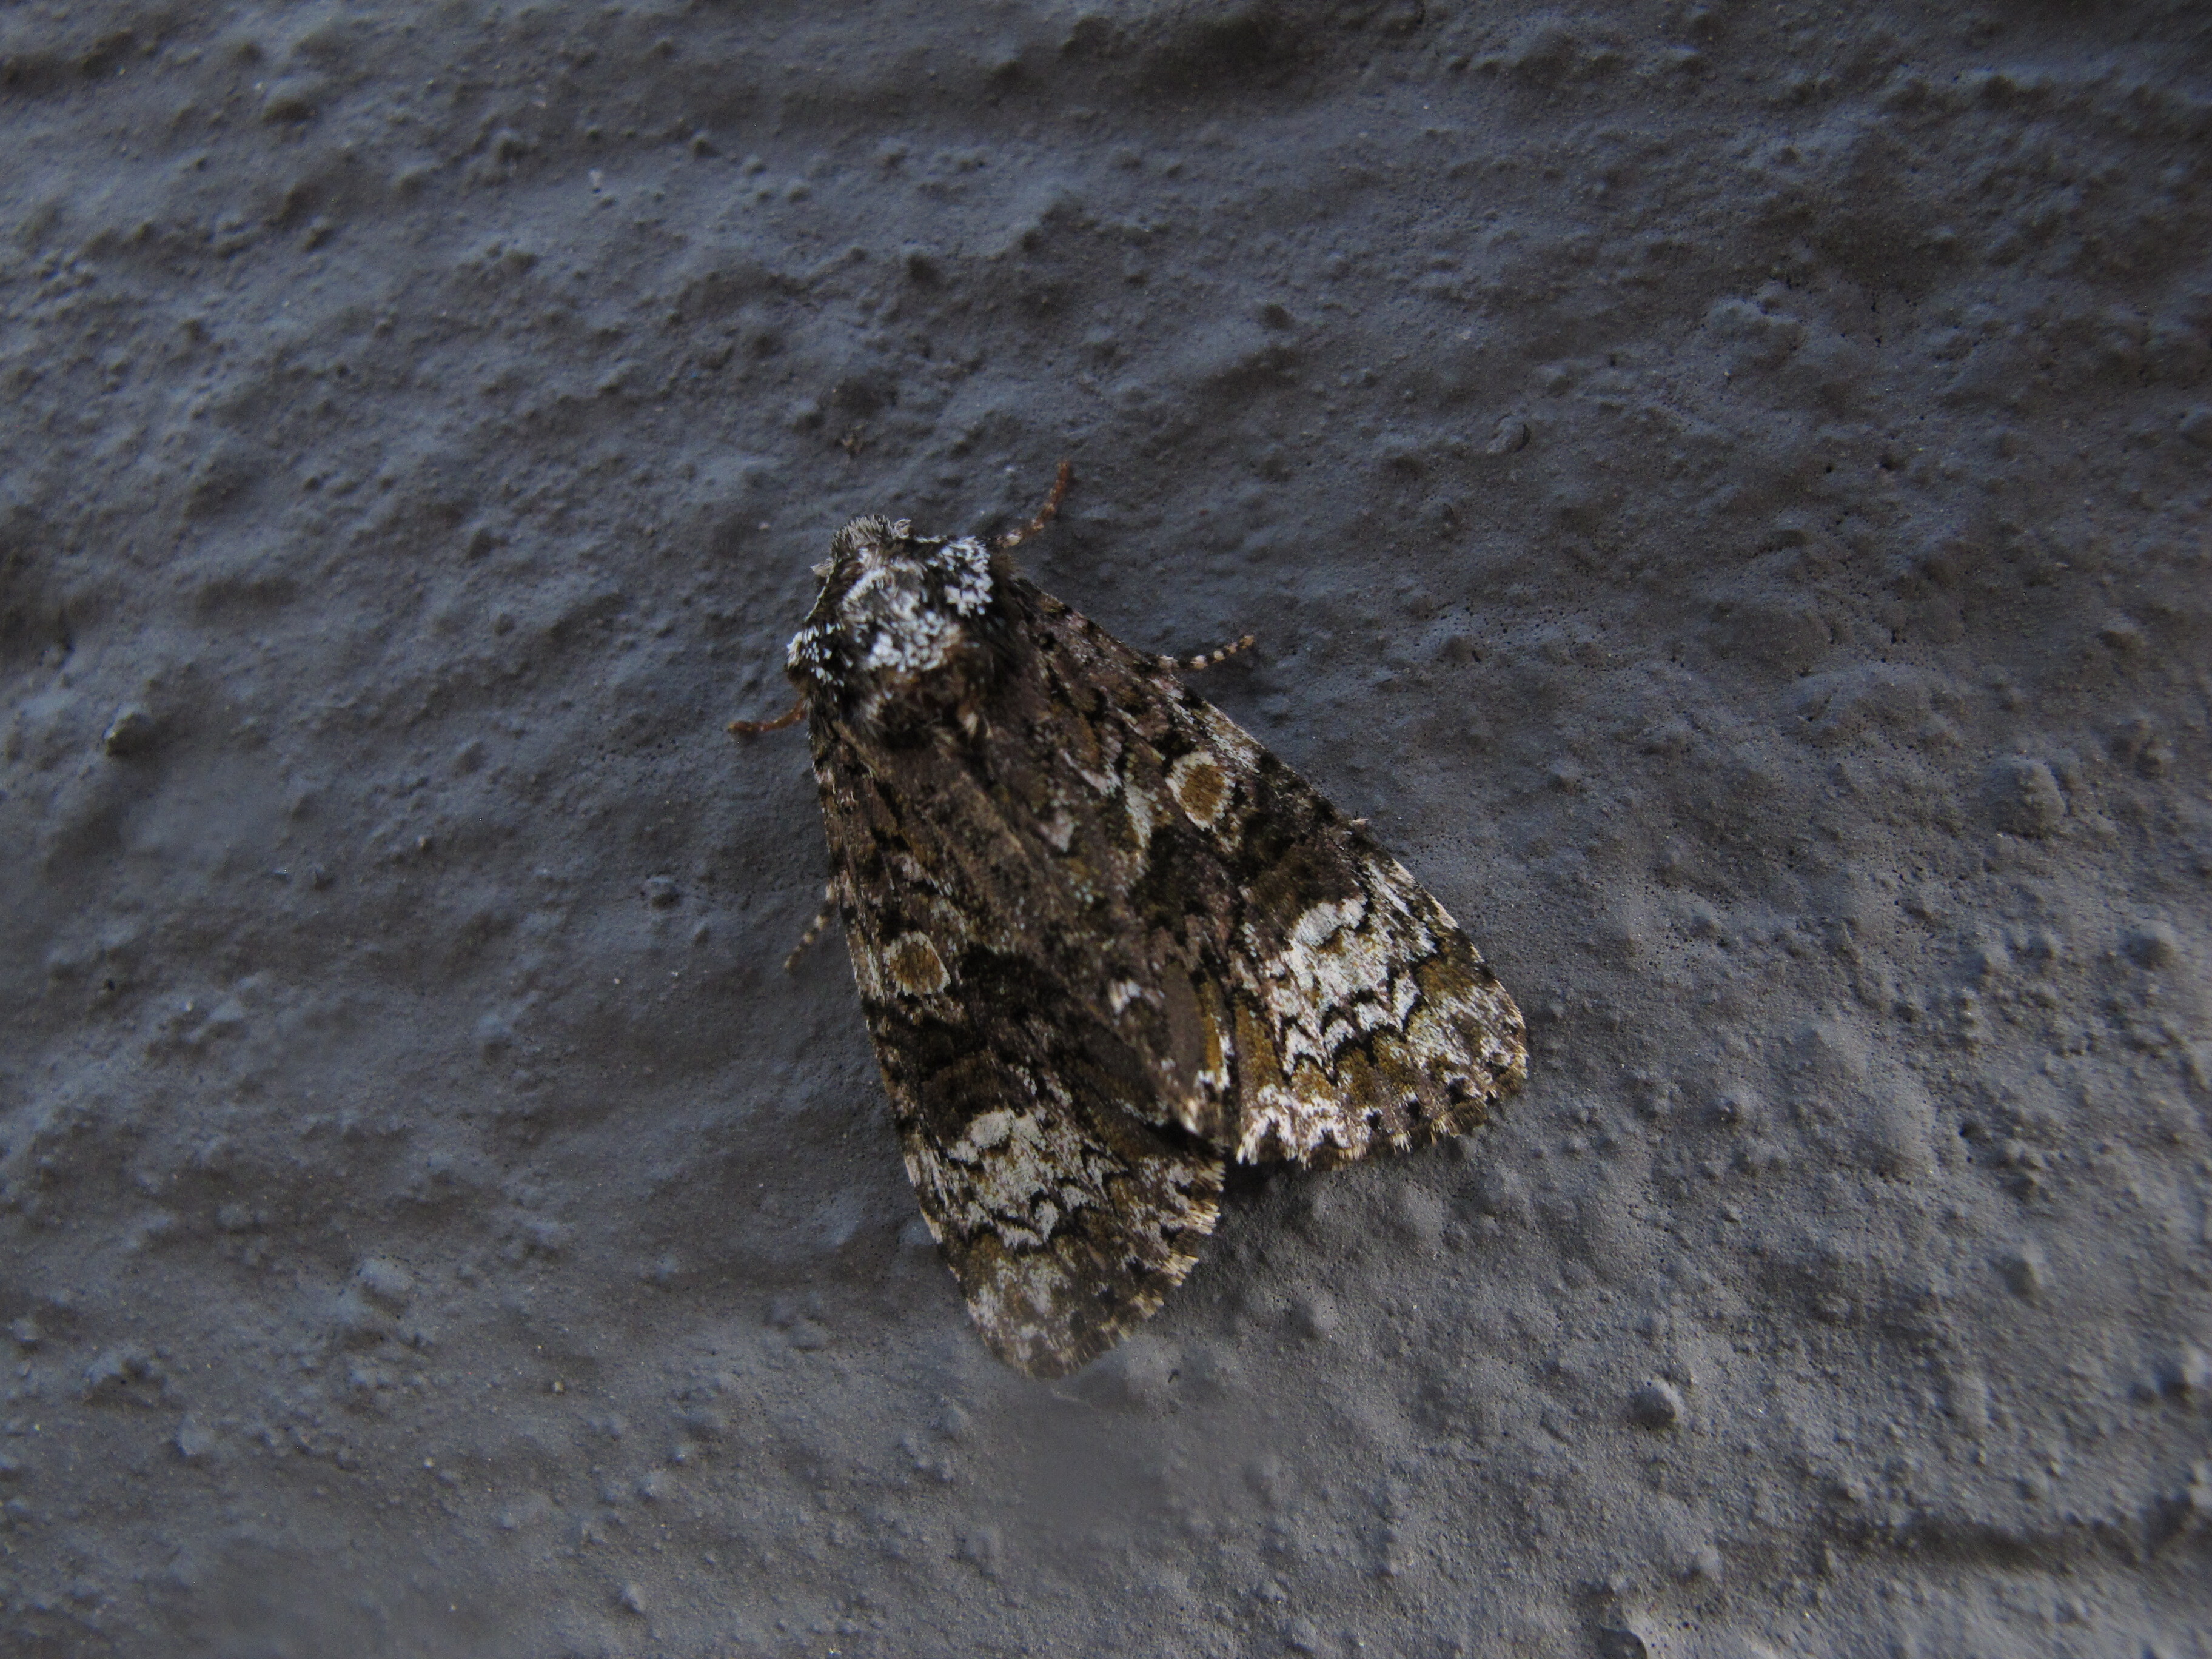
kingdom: Animalia
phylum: Arthropoda
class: Insecta
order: Lepidoptera
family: Noctuidae
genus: Craniophora
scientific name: Craniophora ligustri
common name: Coronet
